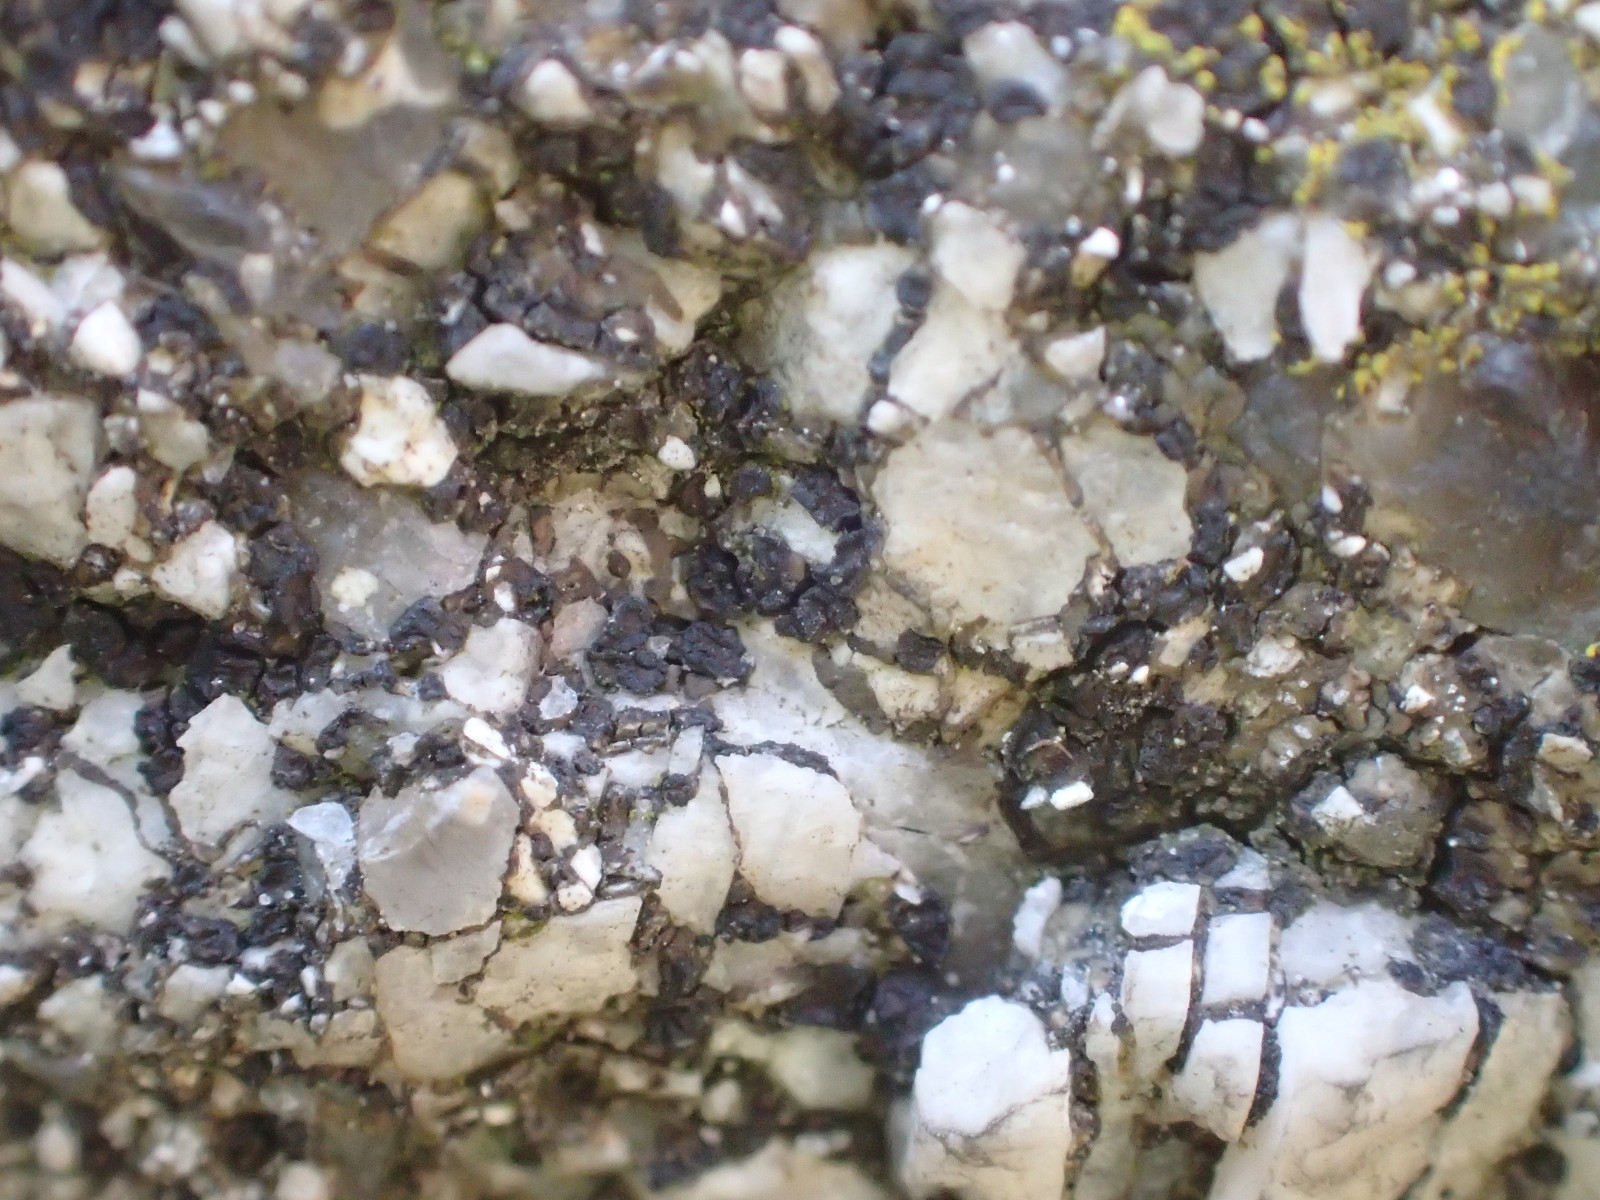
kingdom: Fungi
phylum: Ascomycota
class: Lecanoromycetes
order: Acarosporales
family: Acarosporaceae
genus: Acarospora
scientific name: Acarospora privigna
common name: sort foldekantlav
